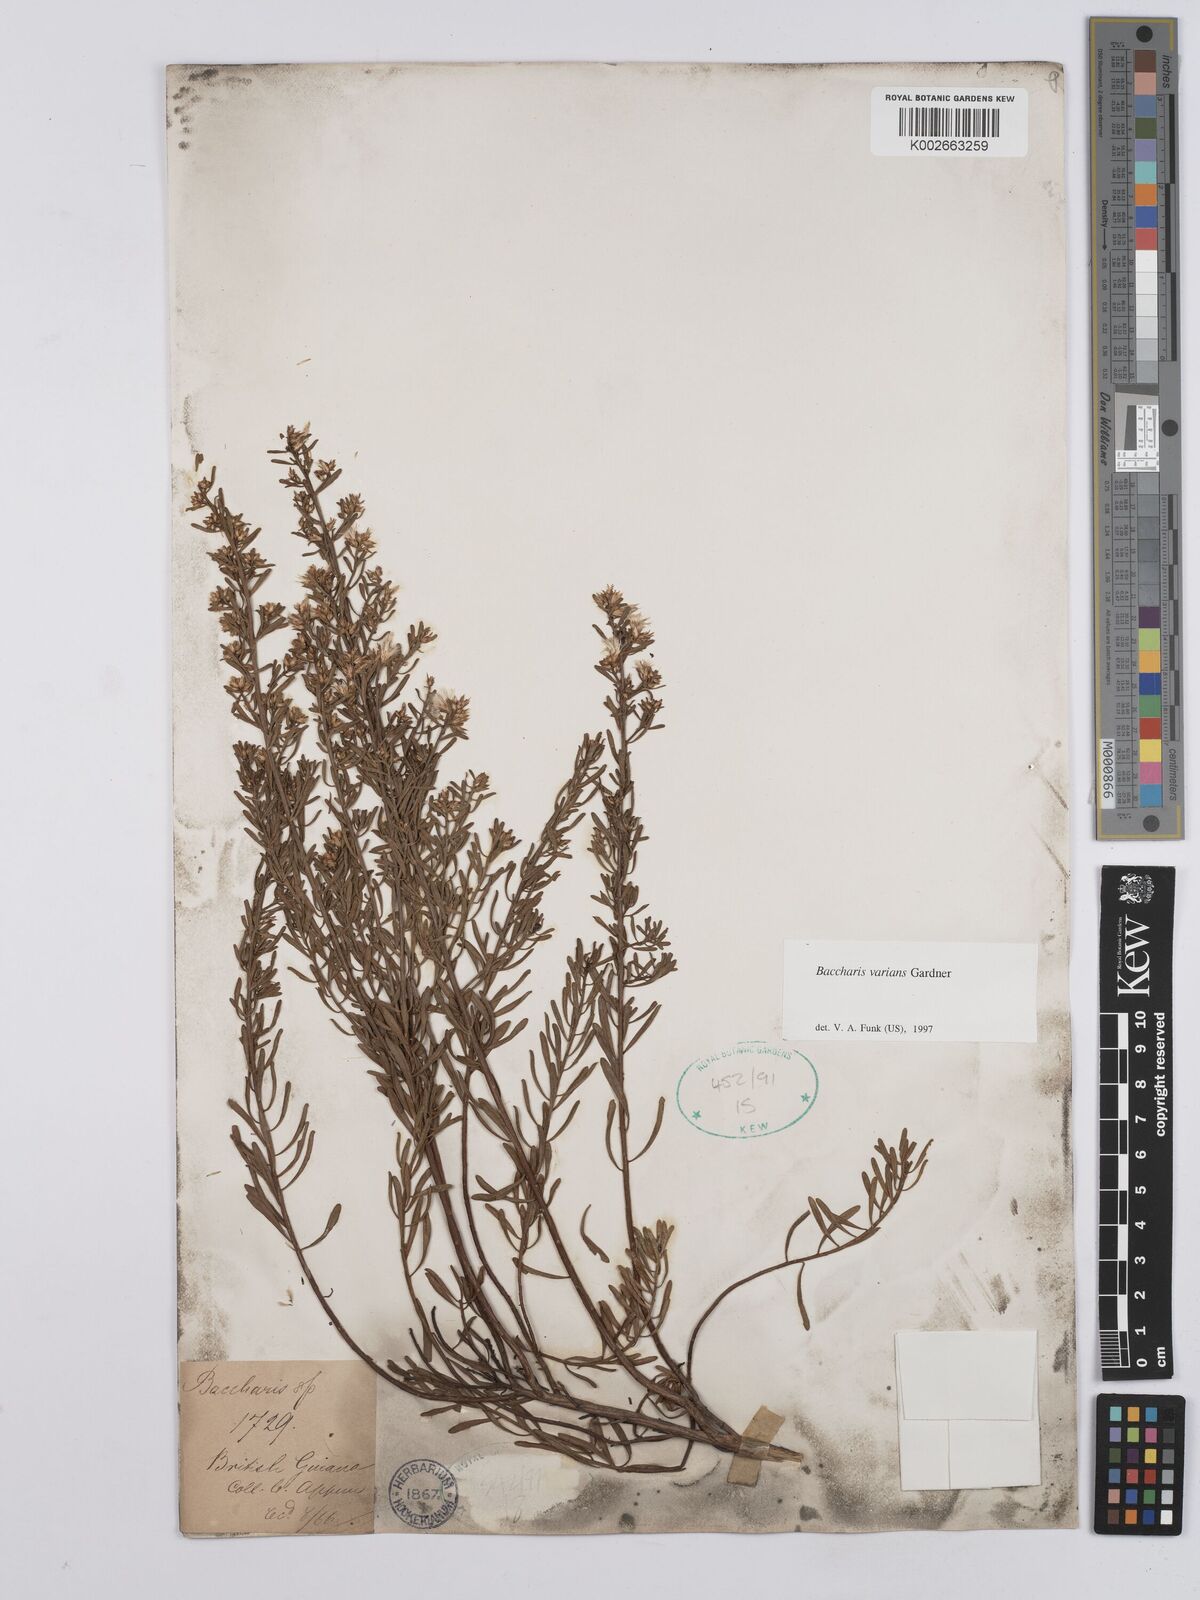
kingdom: Plantae
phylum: Tracheophyta
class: Magnoliopsida
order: Asterales
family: Asteraceae
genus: Baccharis
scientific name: Baccharis varians
